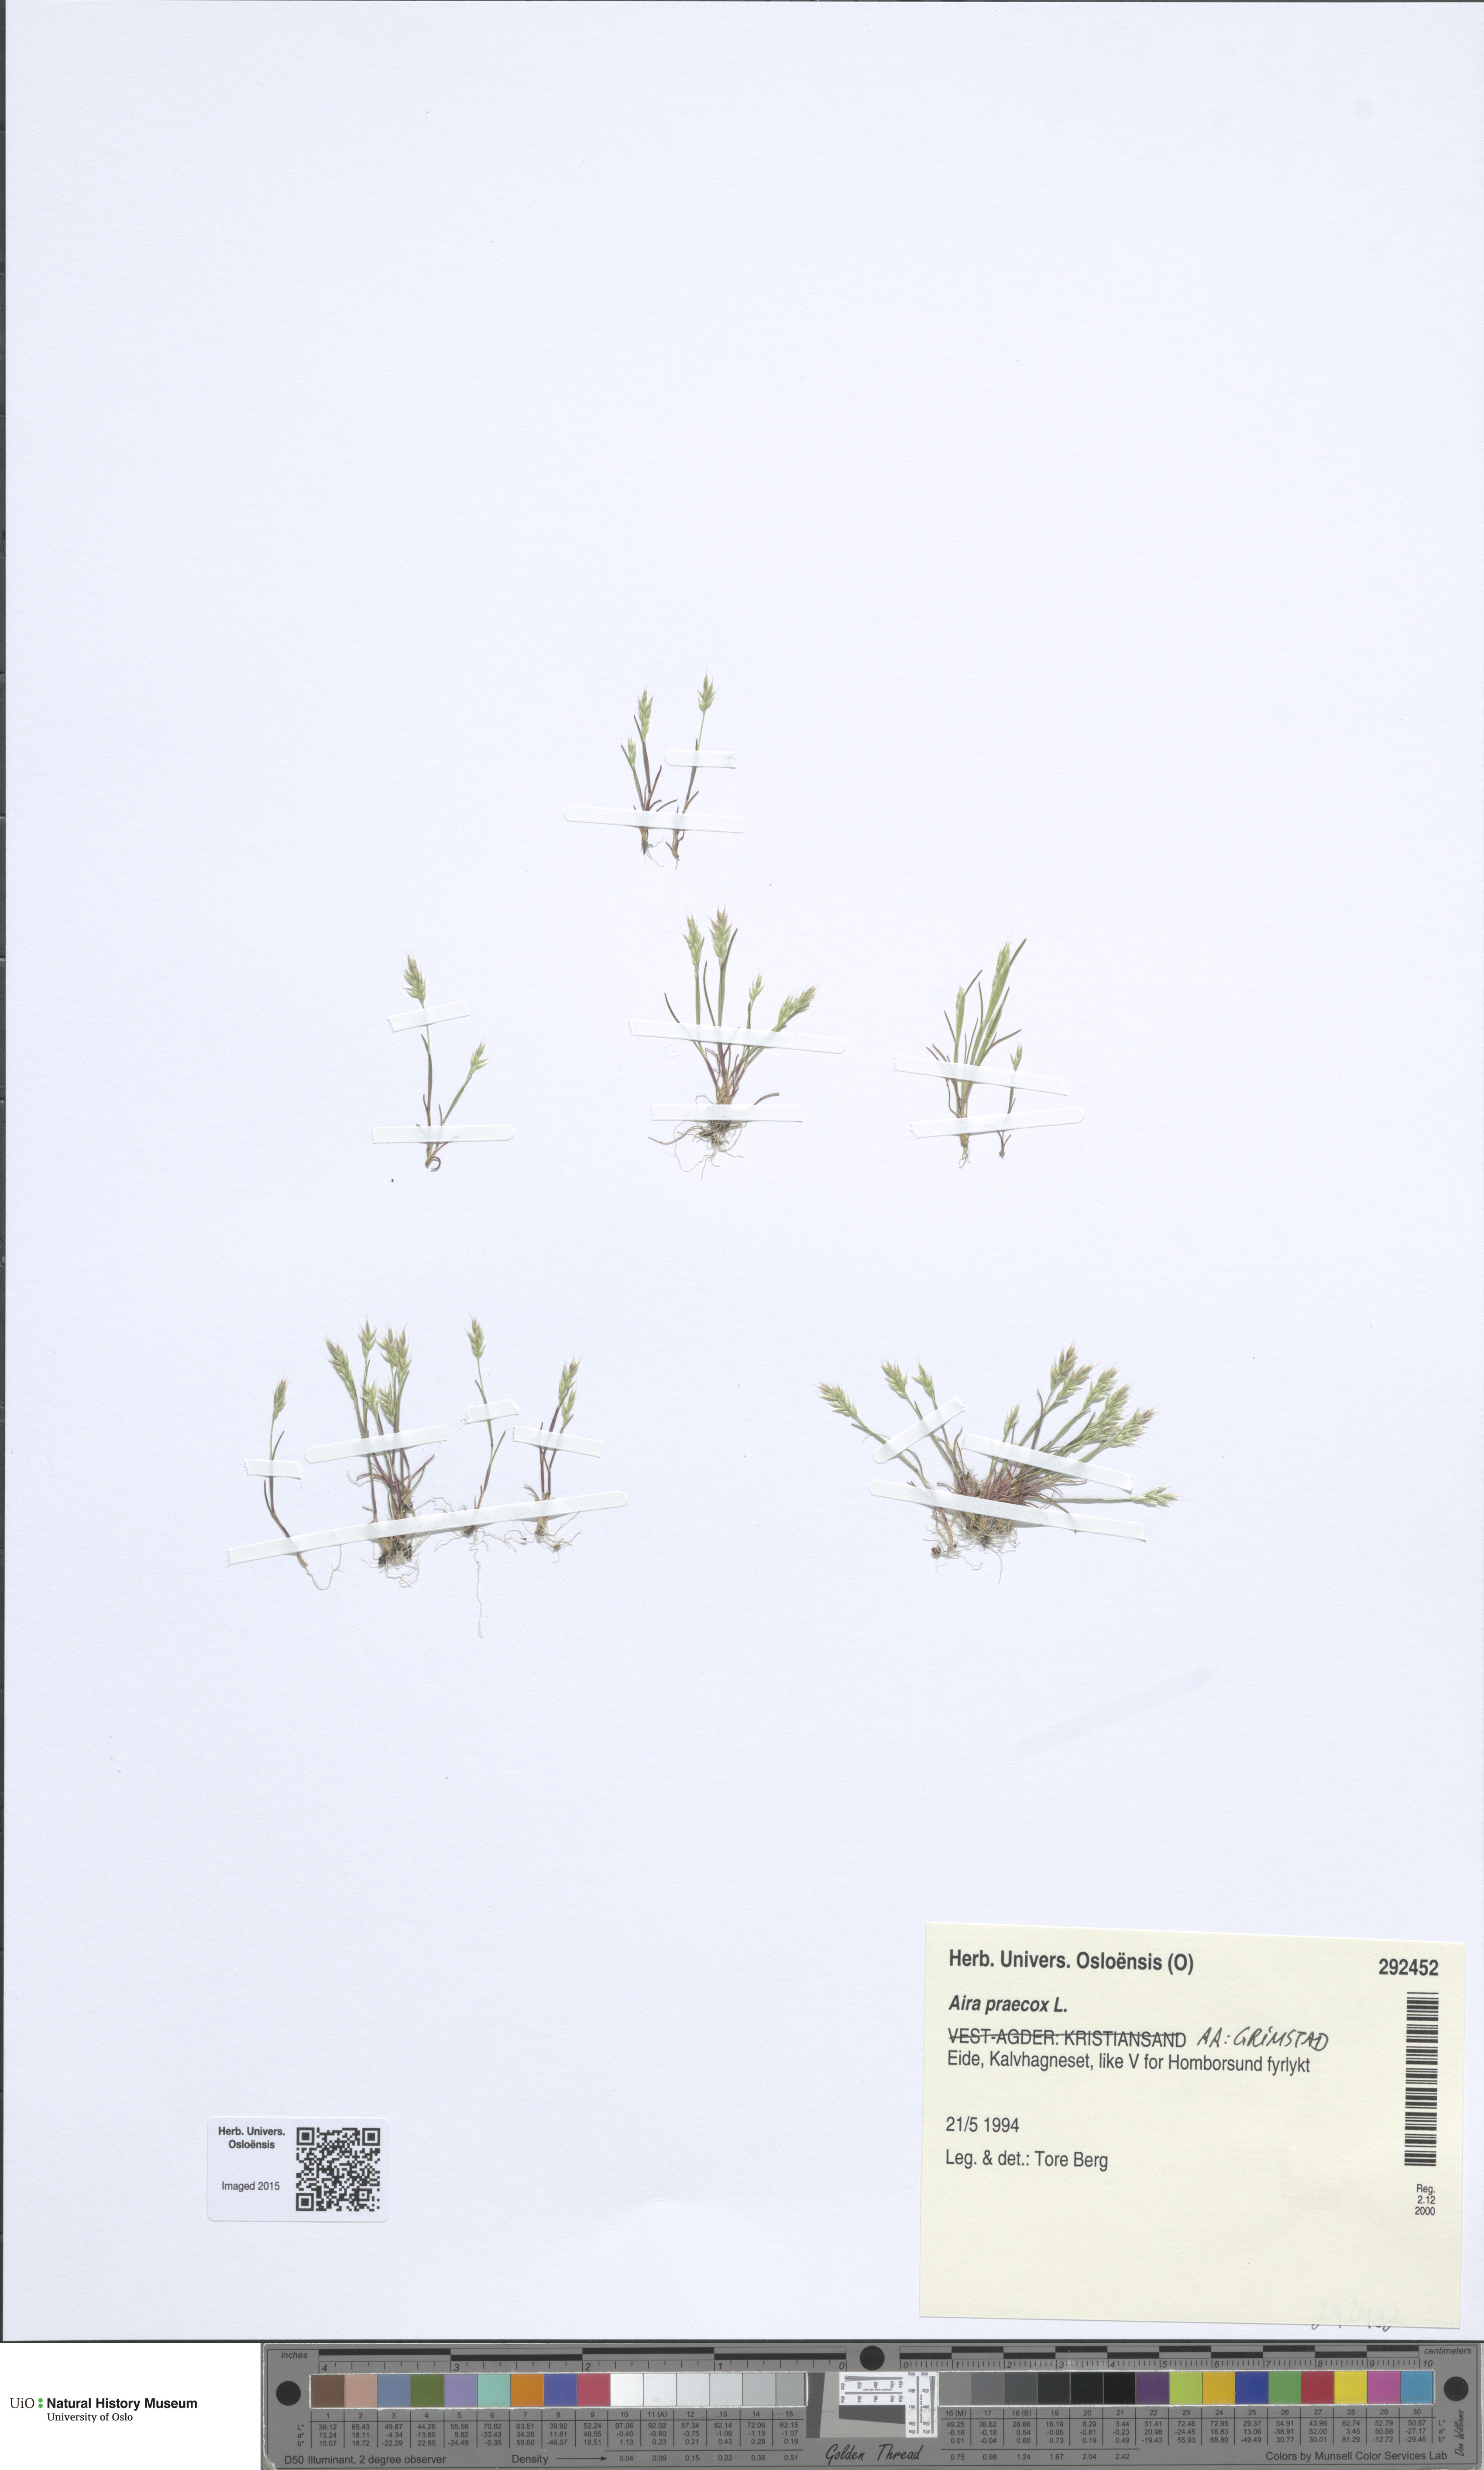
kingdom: Plantae
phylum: Tracheophyta
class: Liliopsida
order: Poales
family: Poaceae
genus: Aira
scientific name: Aira praecox
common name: Early hair-grass
